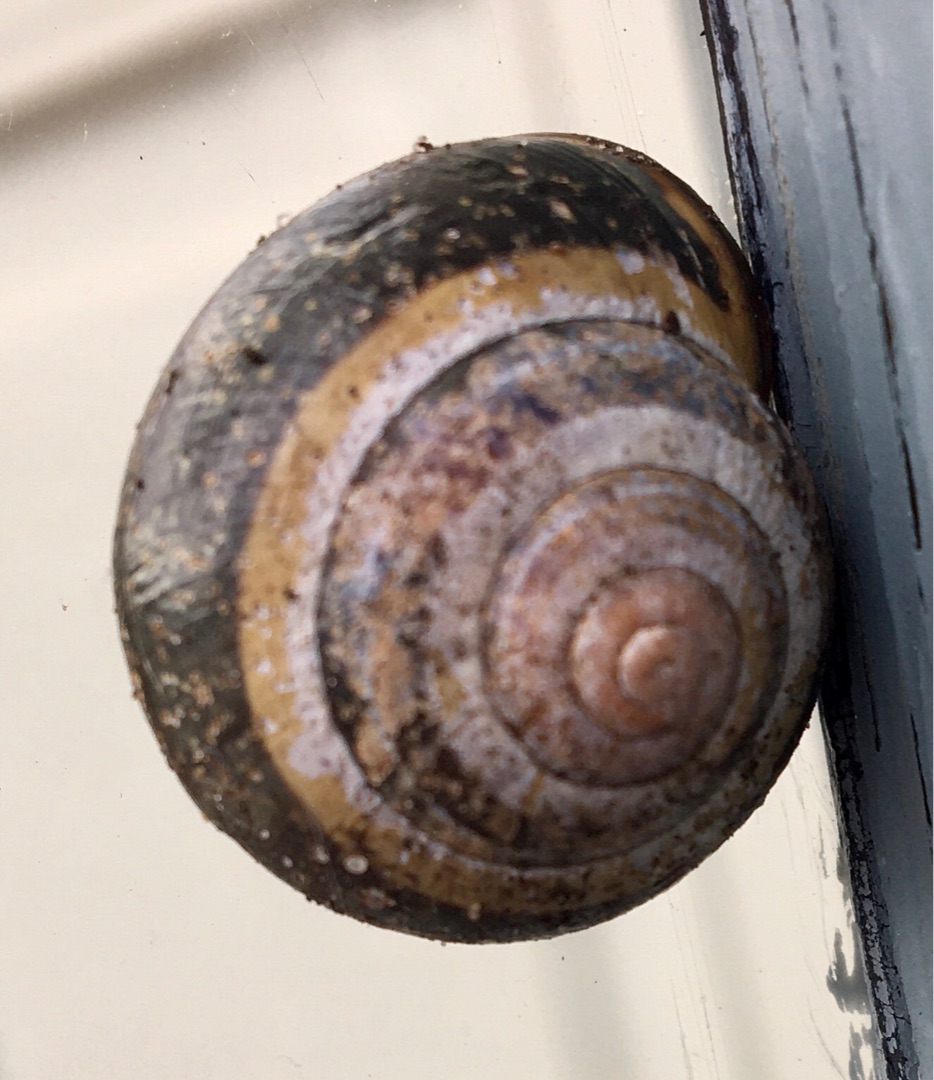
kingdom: Animalia
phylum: Mollusca
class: Gastropoda
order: Stylommatophora
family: Helicidae
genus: Cepaea
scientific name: Cepaea nemoralis
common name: Lundsnegl
